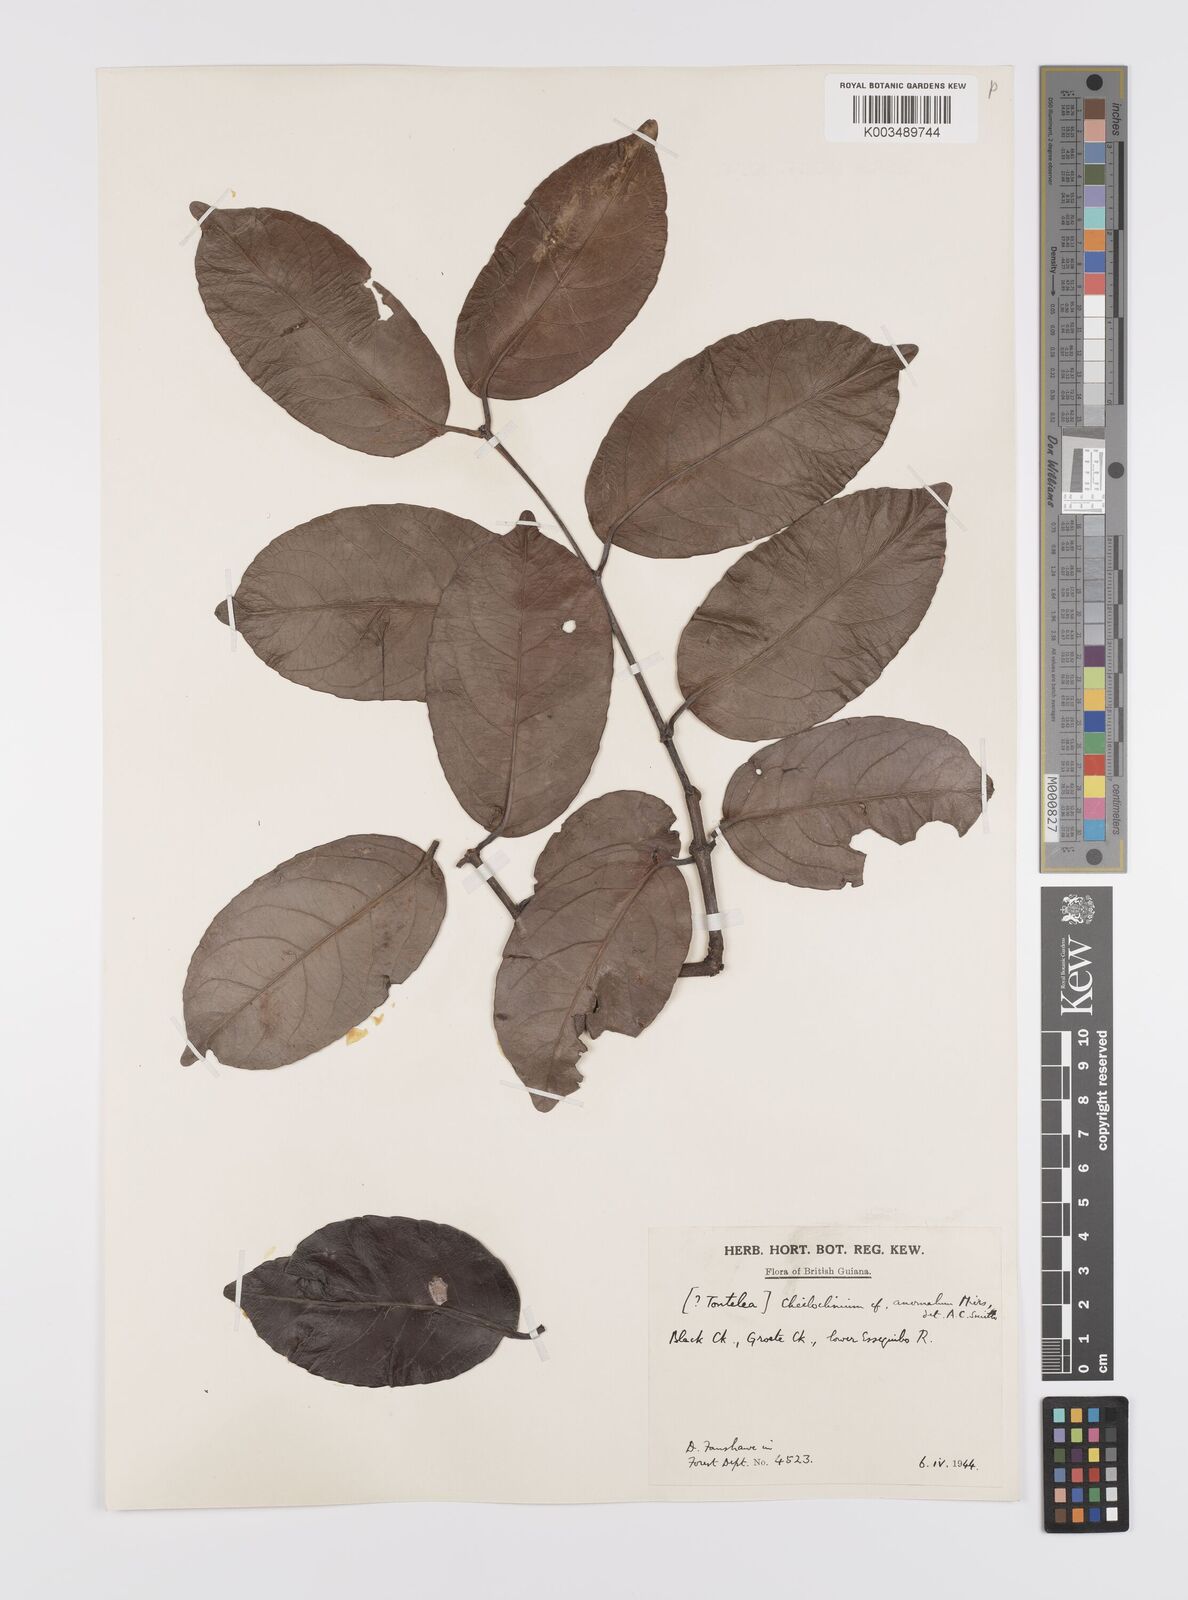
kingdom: Plantae
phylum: Tracheophyta
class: Magnoliopsida
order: Celastrales
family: Celastraceae
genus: Cheiloclinium
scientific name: Cheiloclinium anomalum
